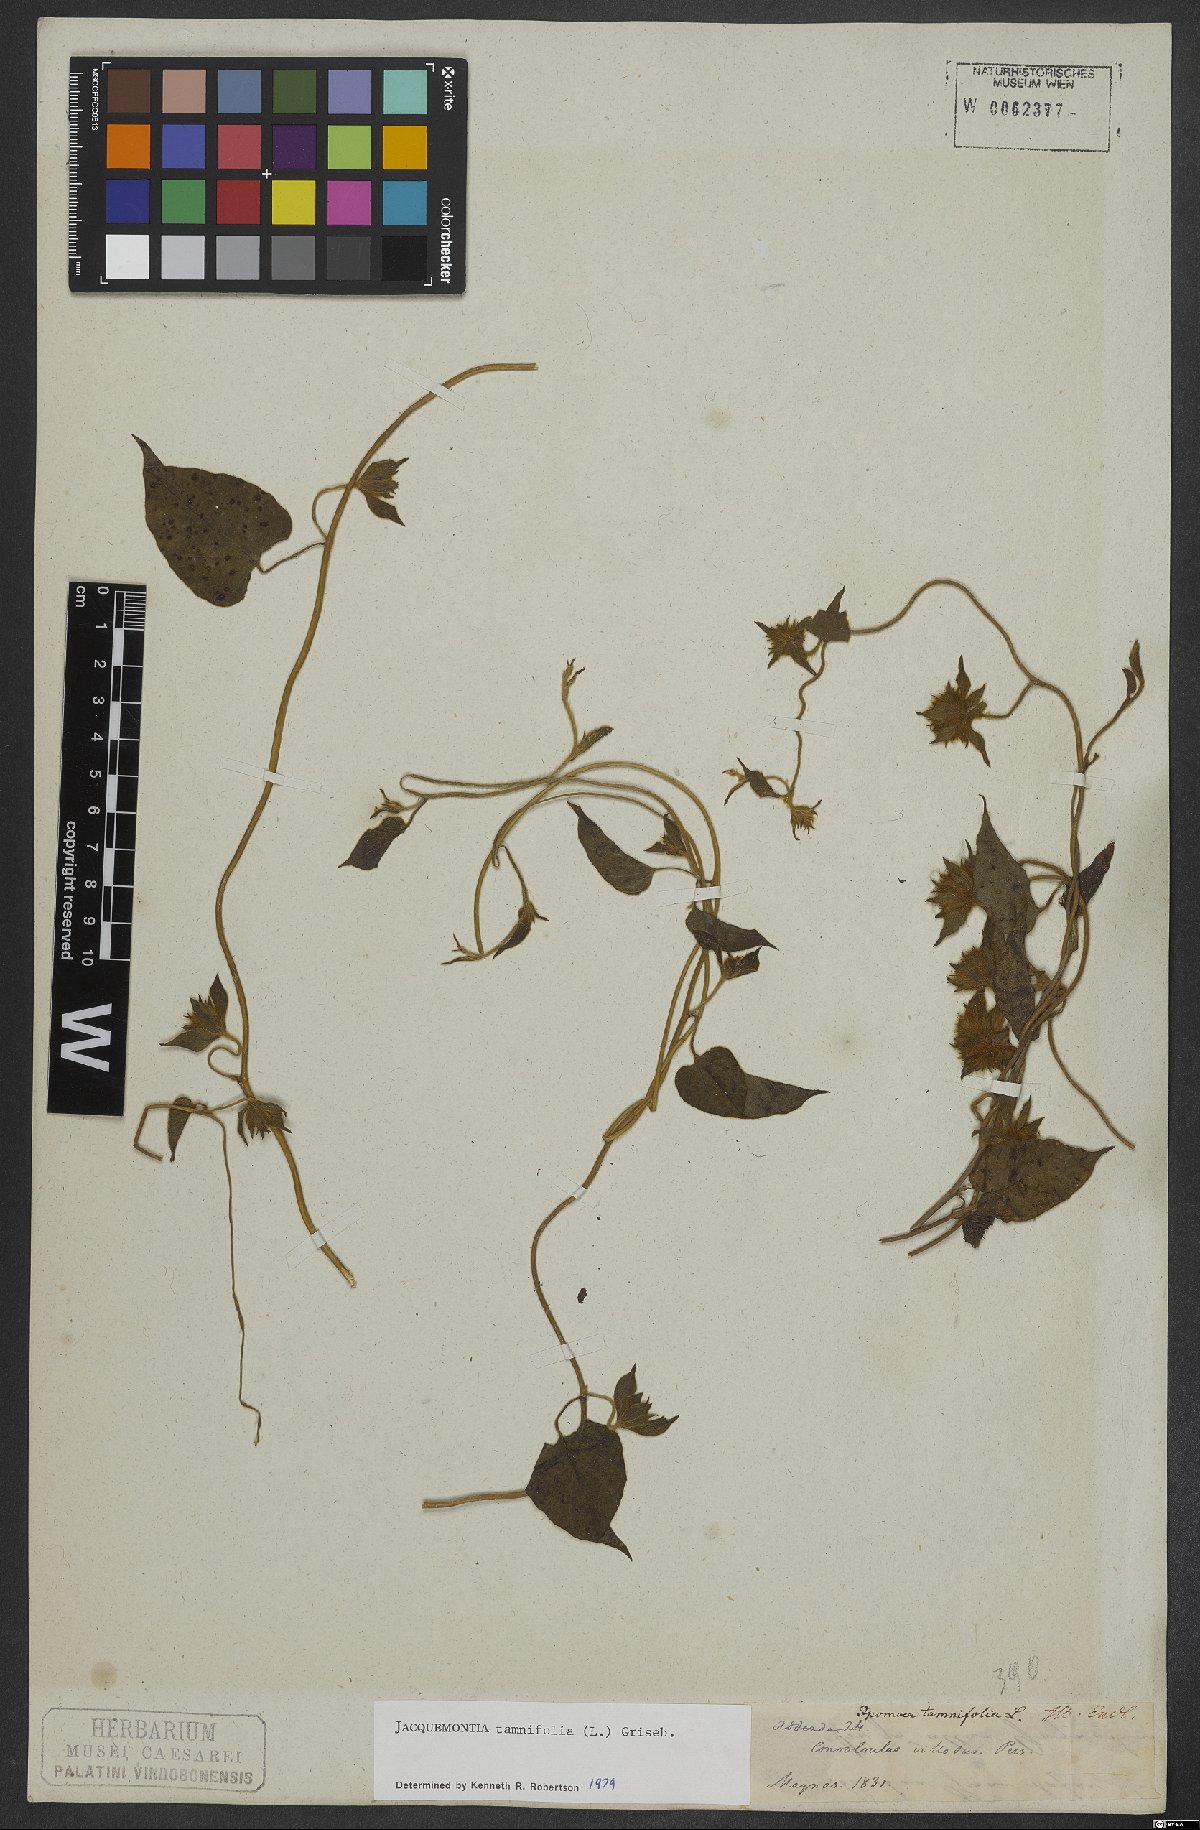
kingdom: Plantae
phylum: Tracheophyta
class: Magnoliopsida
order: Solanales
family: Convolvulaceae
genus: Jacquemontia
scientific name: Jacquemontia tamnifolia
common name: Hairy clustervine
